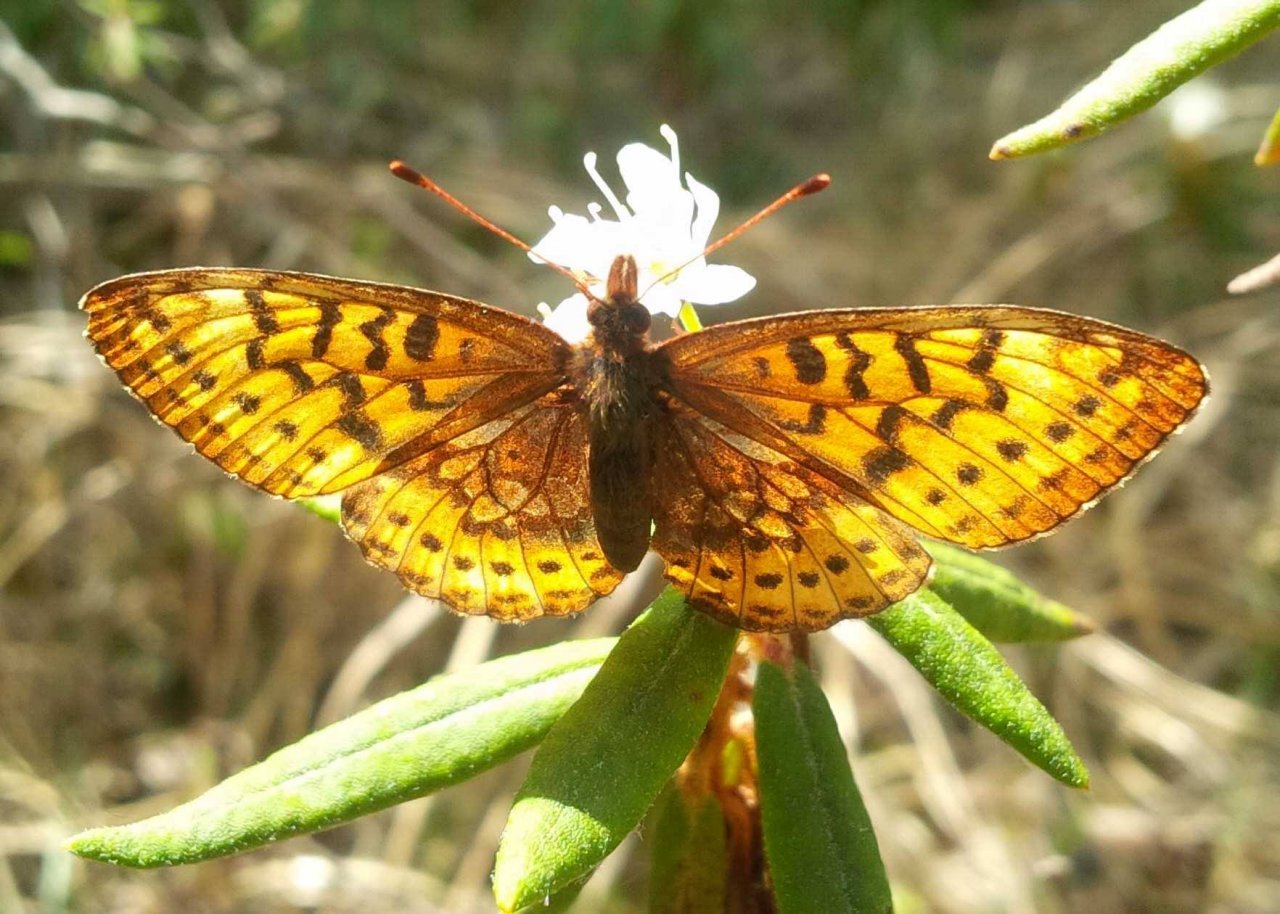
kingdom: Animalia
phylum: Arthropoda
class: Insecta
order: Lepidoptera
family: Nymphalidae
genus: Boloria
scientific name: Boloria frigga
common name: Frigga Fritillary
